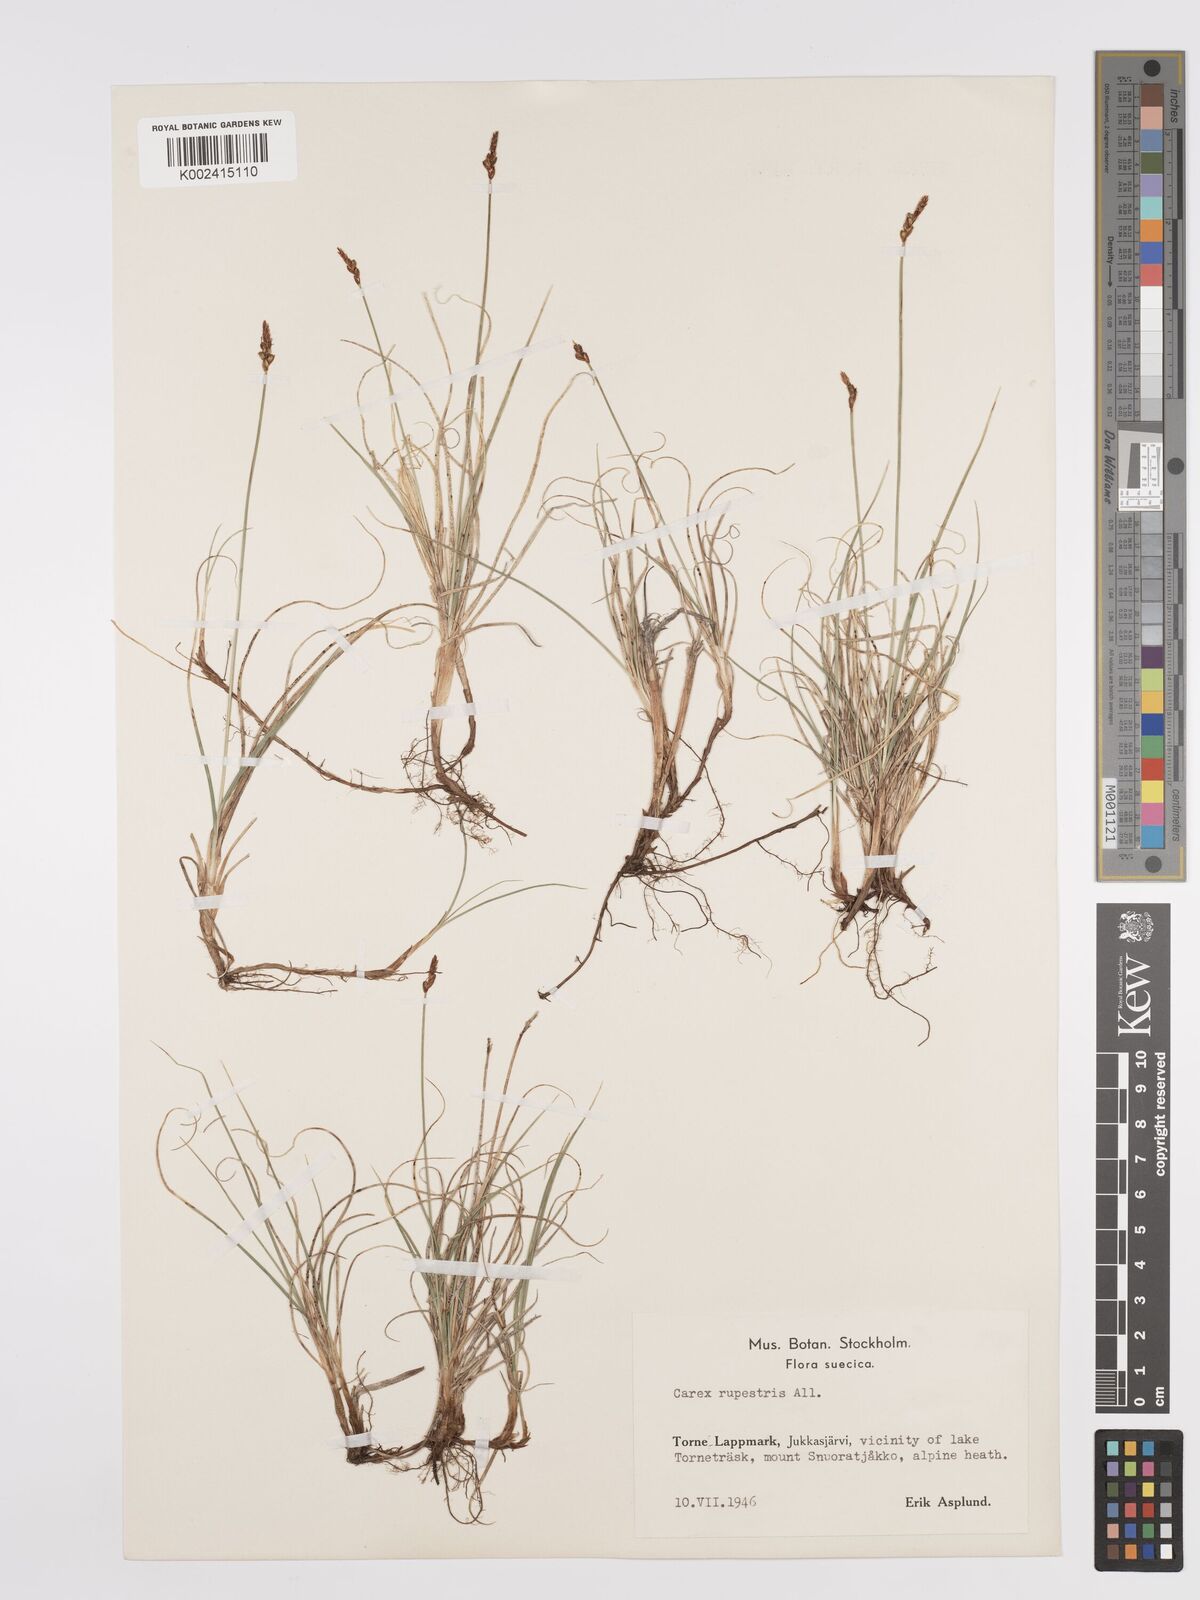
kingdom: Plantae
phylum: Tracheophyta
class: Liliopsida
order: Poales
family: Cyperaceae
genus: Carex
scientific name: Carex rupestris
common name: Rock sedge
